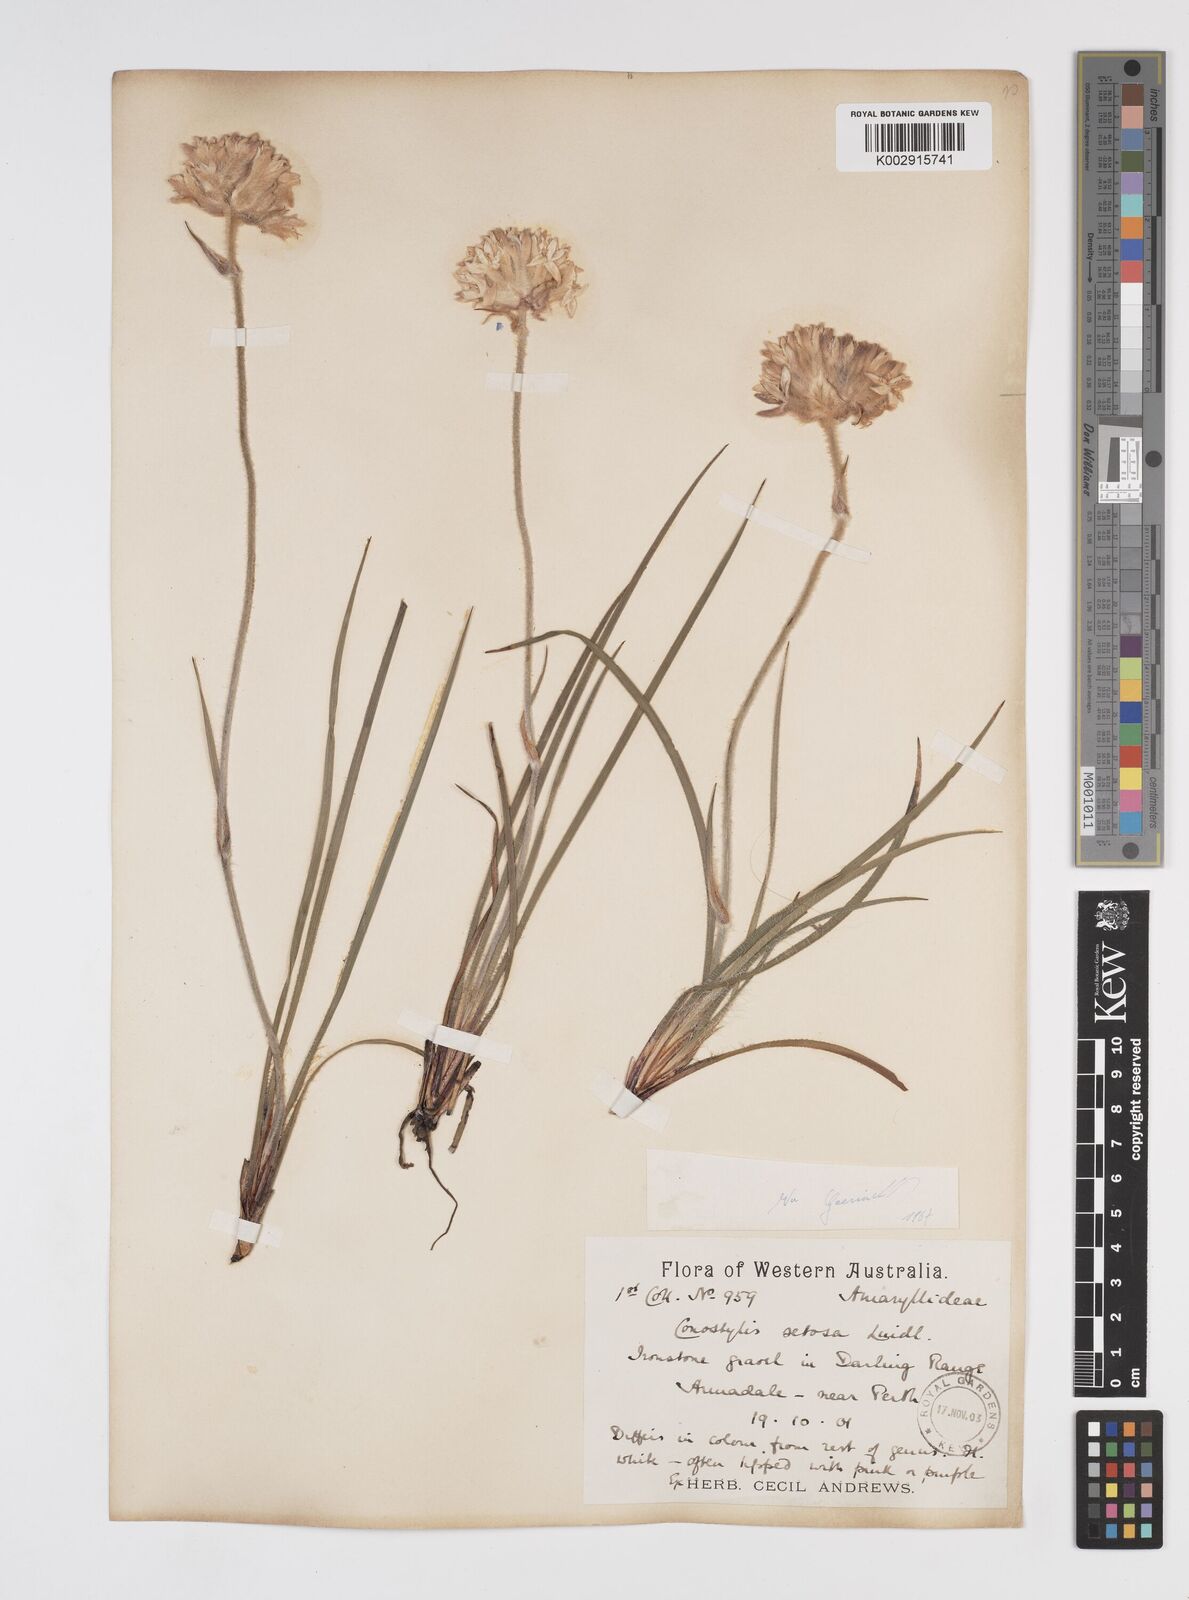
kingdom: Plantae
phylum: Tracheophyta
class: Liliopsida
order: Commelinales
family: Haemodoraceae
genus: Conostylis
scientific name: Conostylis setosa
